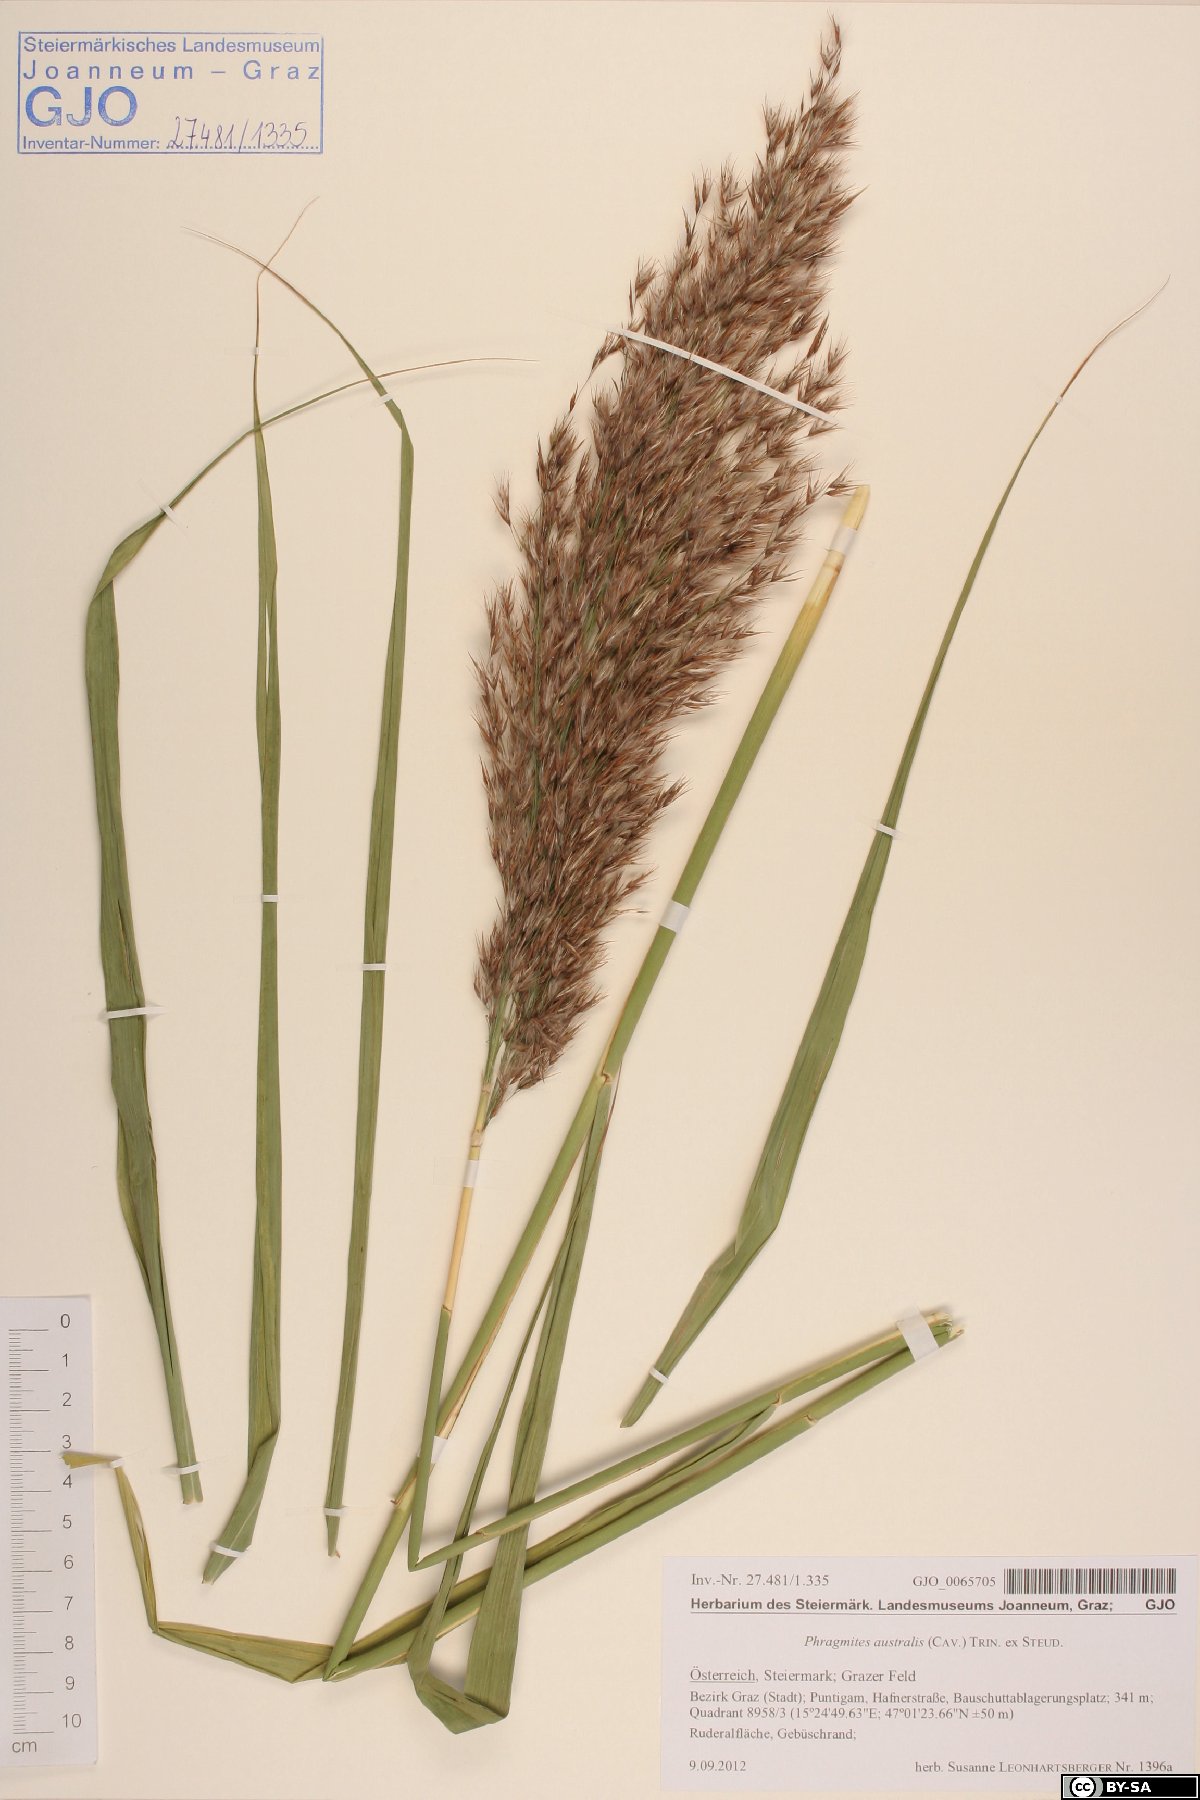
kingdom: Plantae
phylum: Tracheophyta
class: Liliopsida
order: Poales
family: Poaceae
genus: Phragmites
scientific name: Phragmites australis
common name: Common reed
